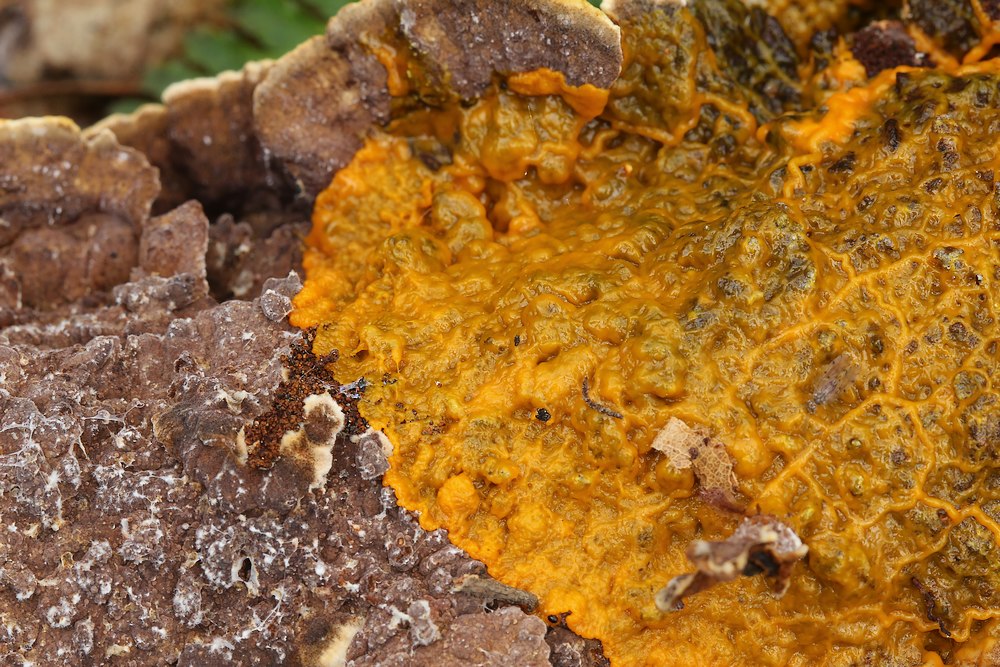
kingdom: Protozoa
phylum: Mycetozoa
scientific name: Mycetozoa
